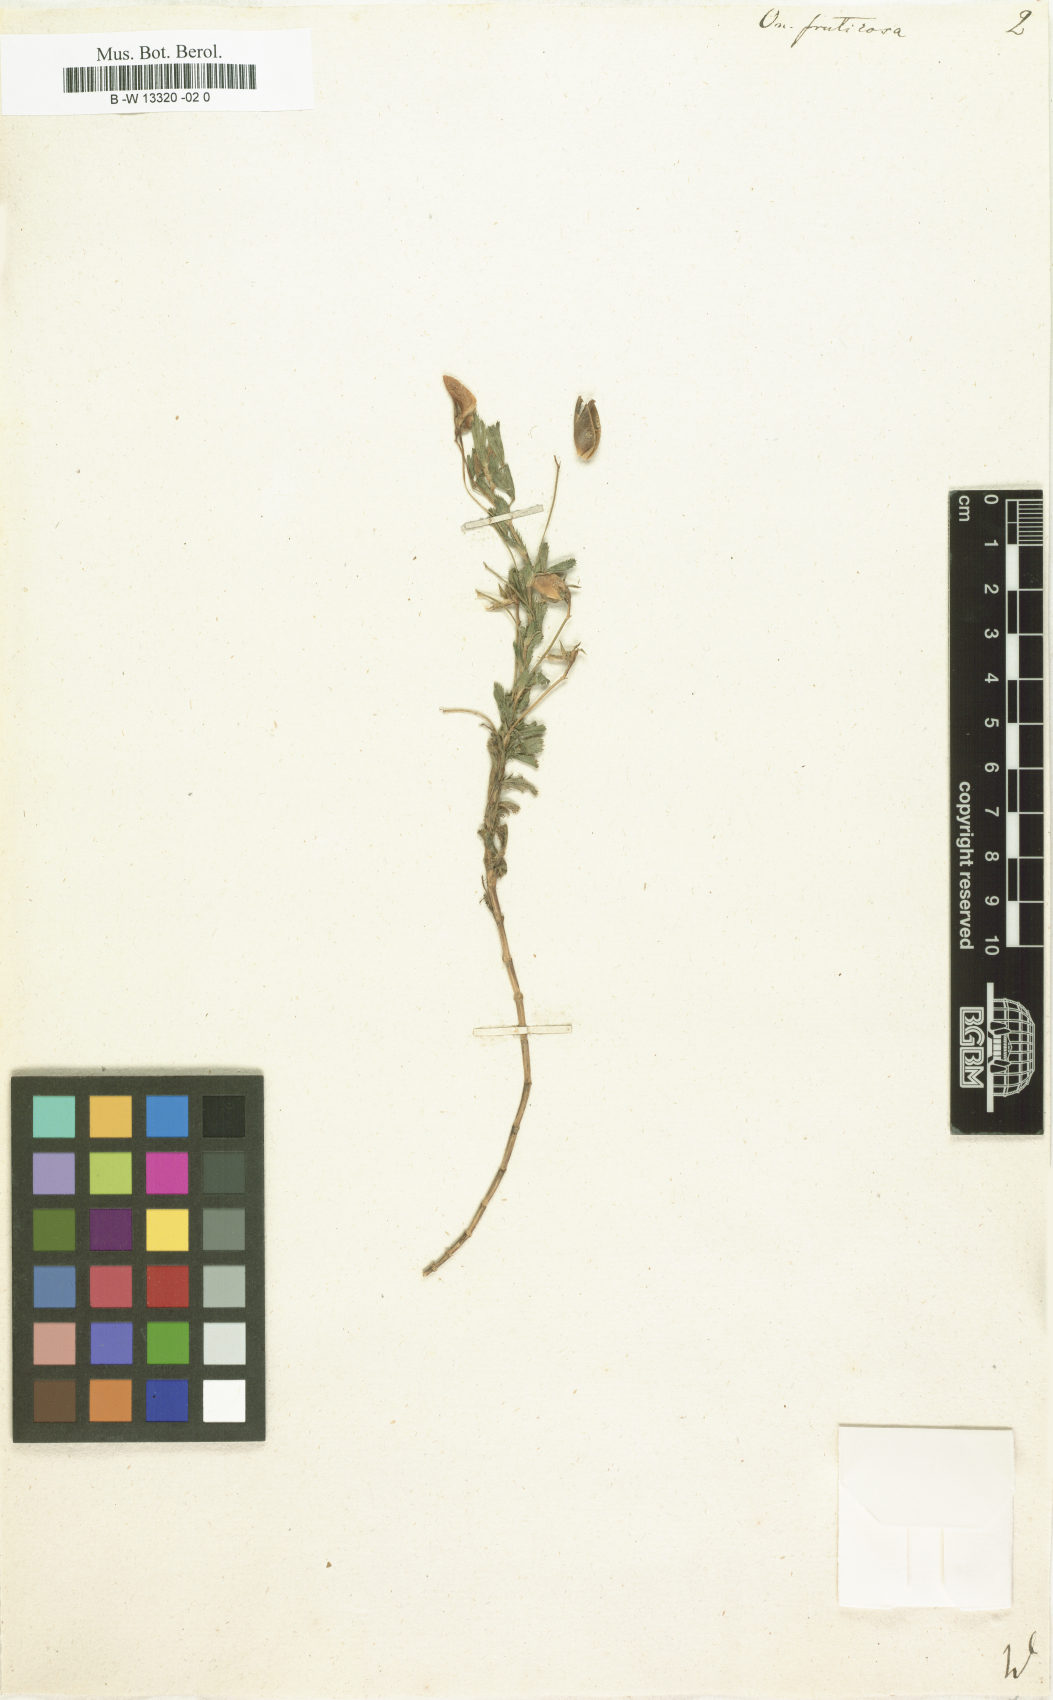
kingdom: Plantae
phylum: Tracheophyta
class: Magnoliopsida
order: Fabales
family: Fabaceae
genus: Ononis
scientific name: Ononis fruticosa
